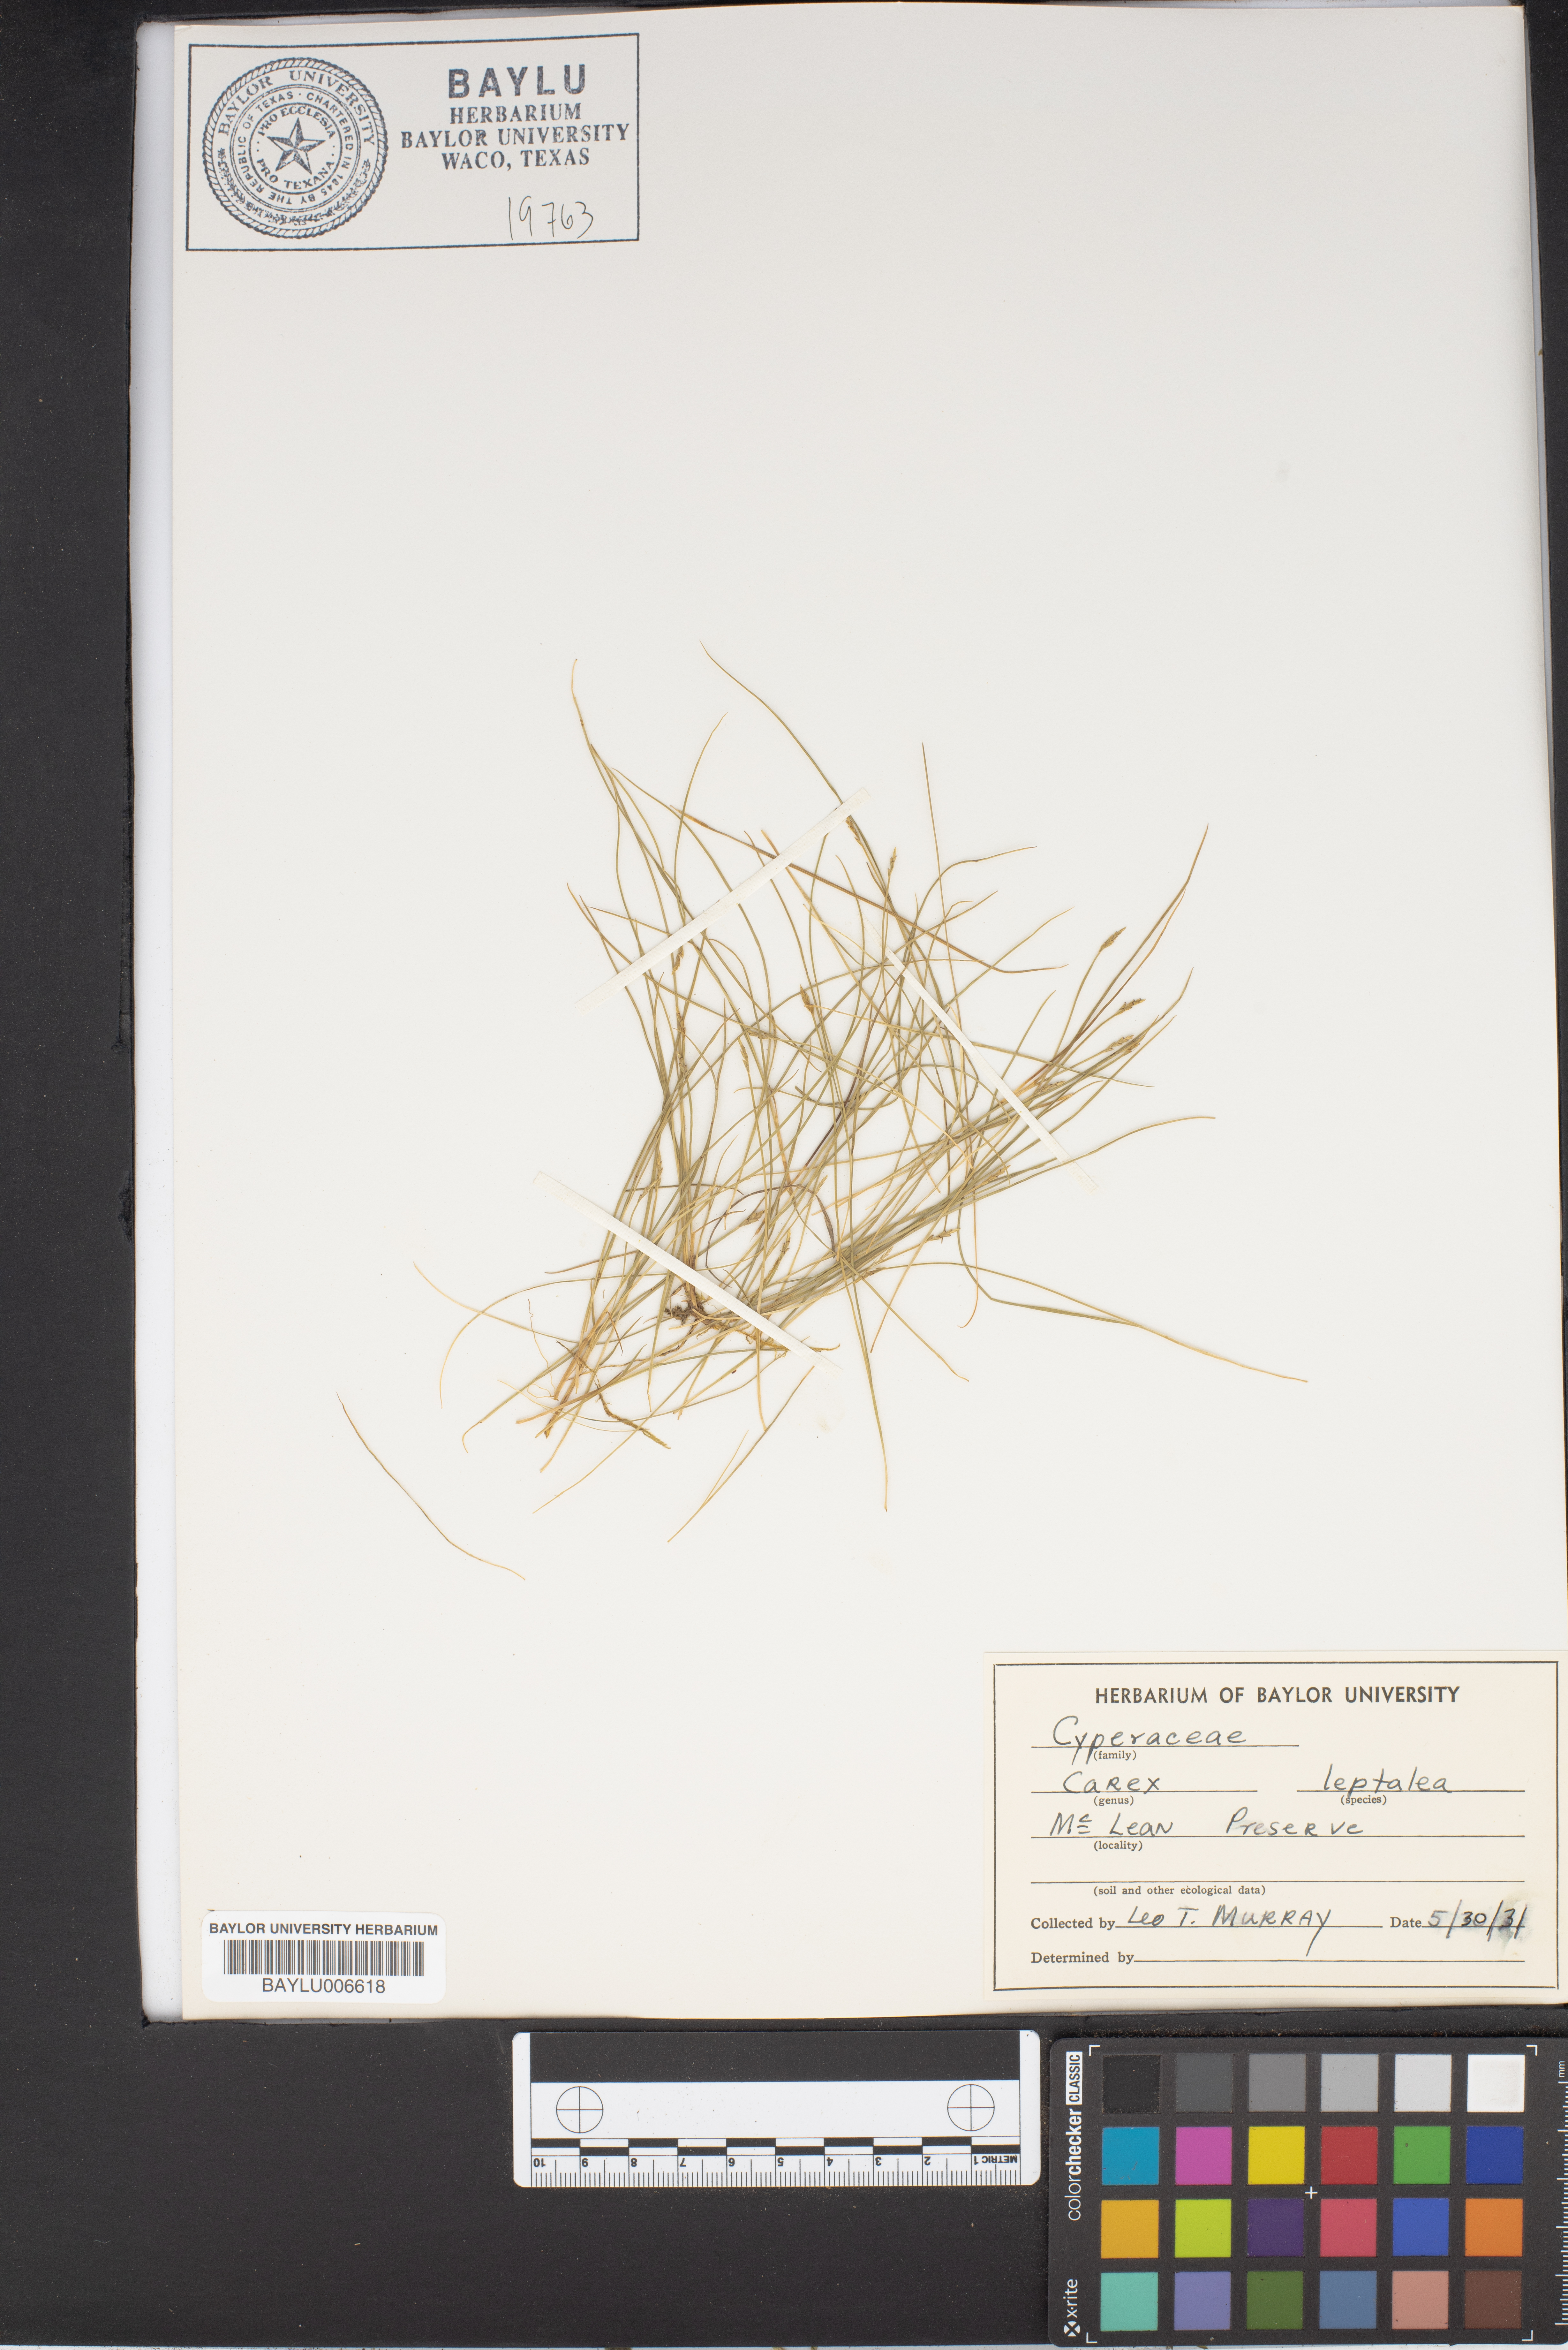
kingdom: Plantae
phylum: Tracheophyta
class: Liliopsida
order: Poales
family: Cyperaceae
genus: Carex
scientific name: Carex leptalea
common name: Bristly-stalked sedge
